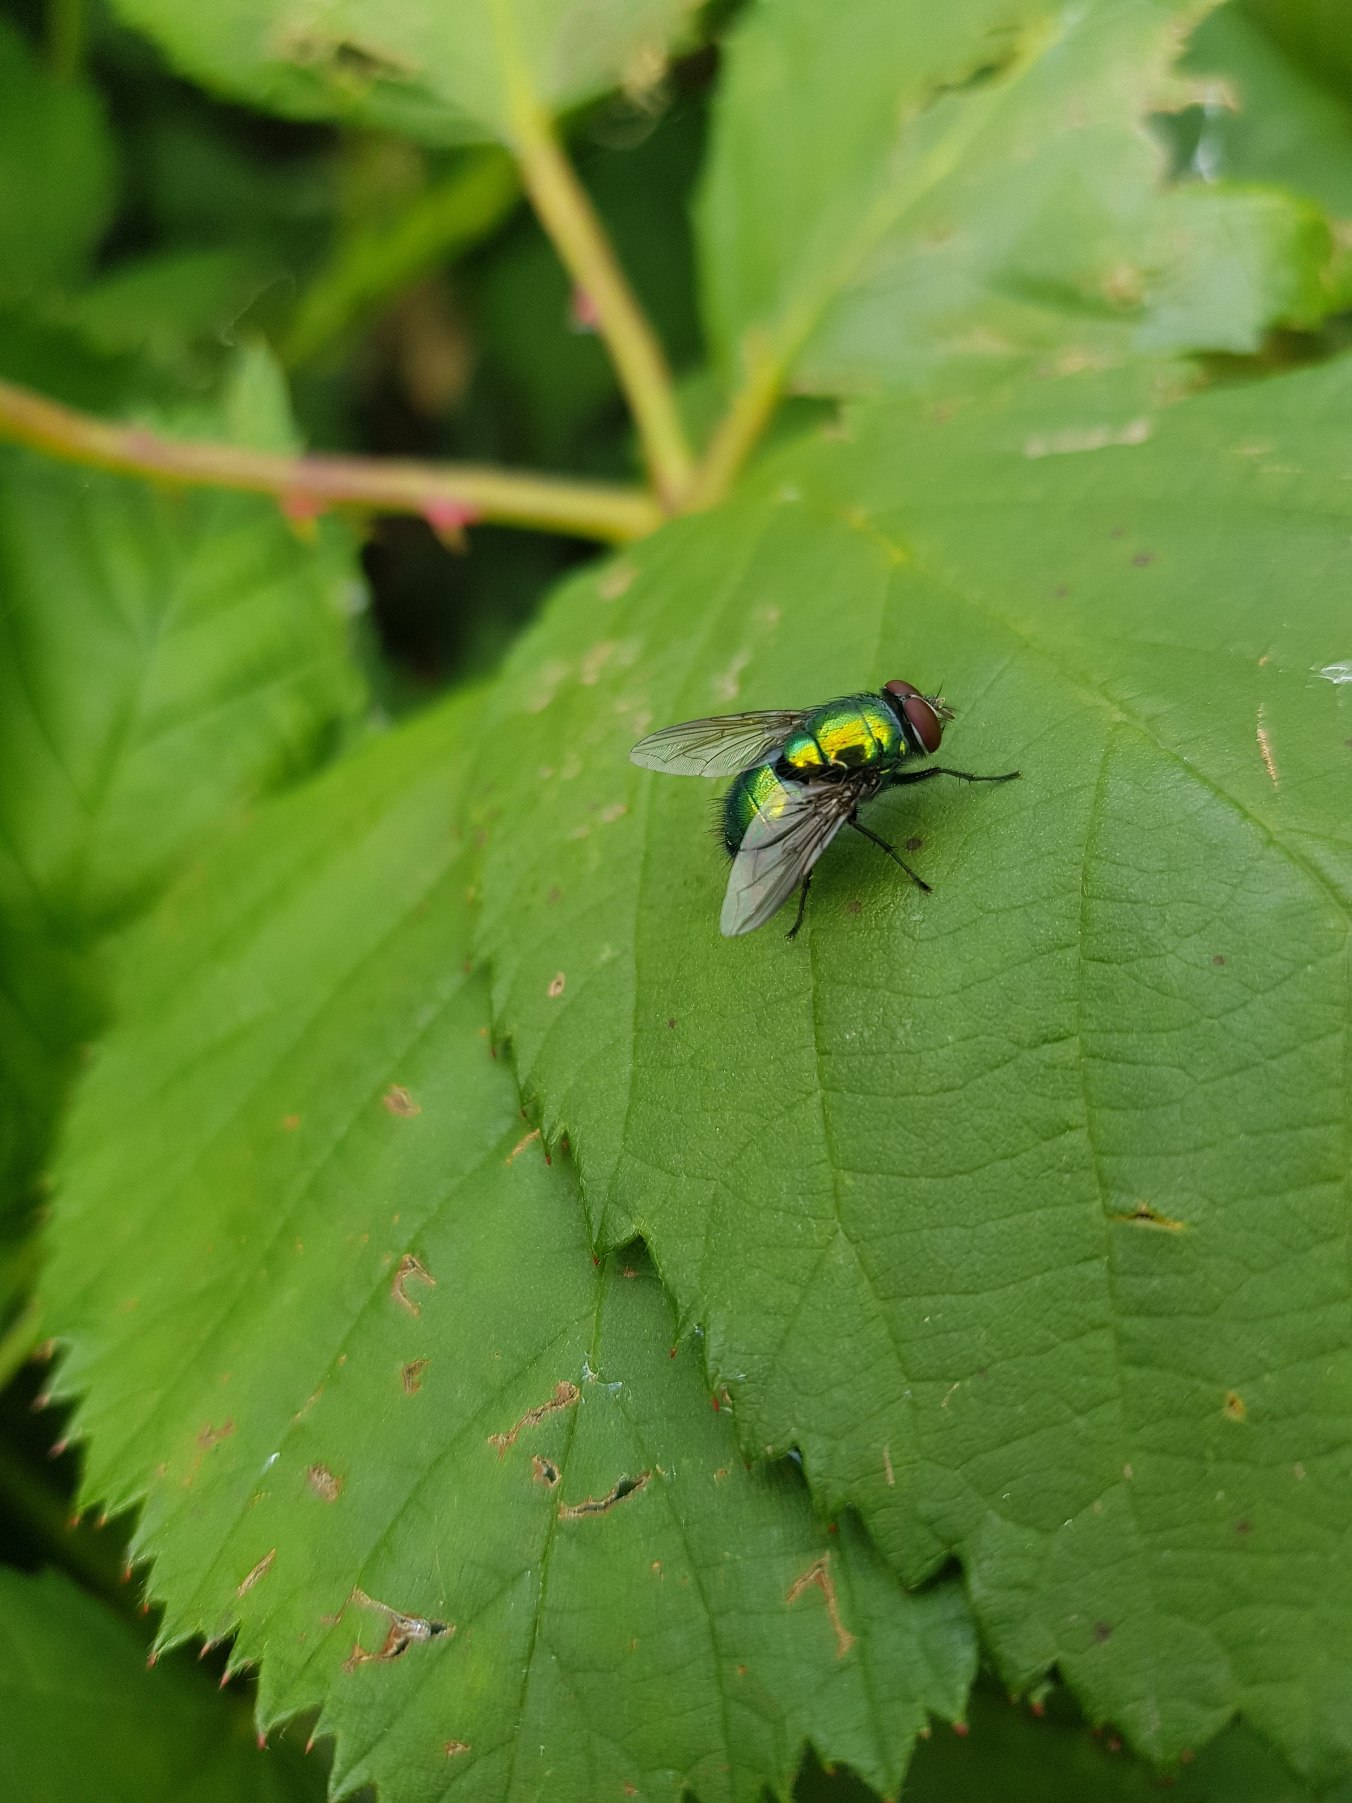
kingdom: Animalia
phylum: Arthropoda
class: Insecta
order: Diptera
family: Calliphoridae
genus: Lucilia
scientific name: Lucilia
